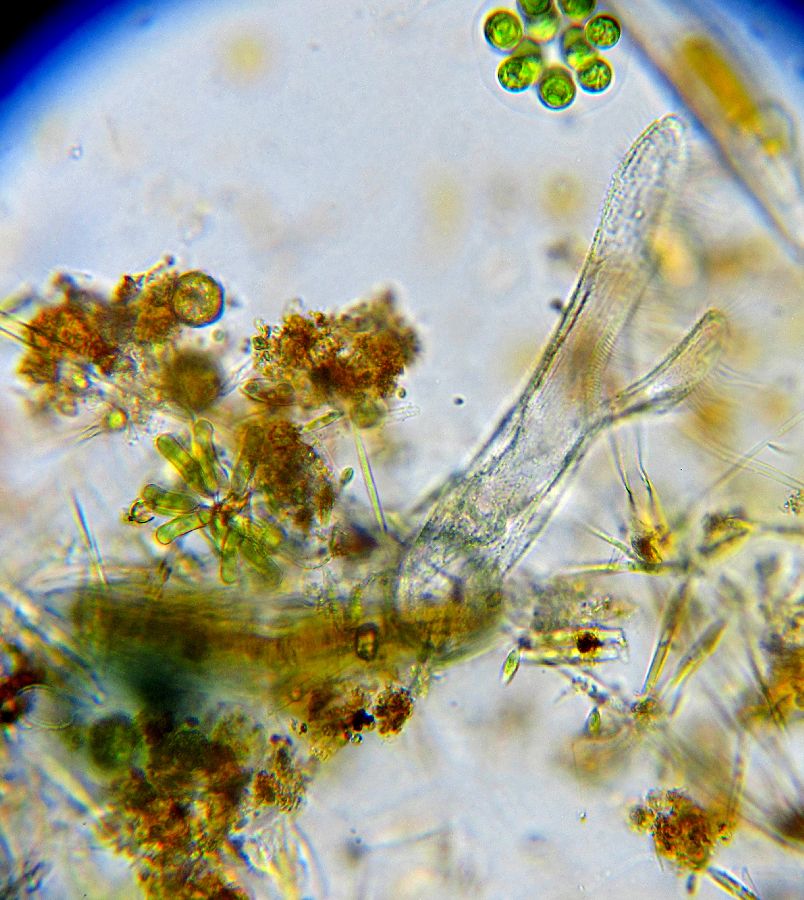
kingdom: Chromista
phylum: Ciliophora
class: Heterotrichea
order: Heterotrichida
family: Folliculinidae
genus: Folliculina
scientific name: Folliculina boltoni
